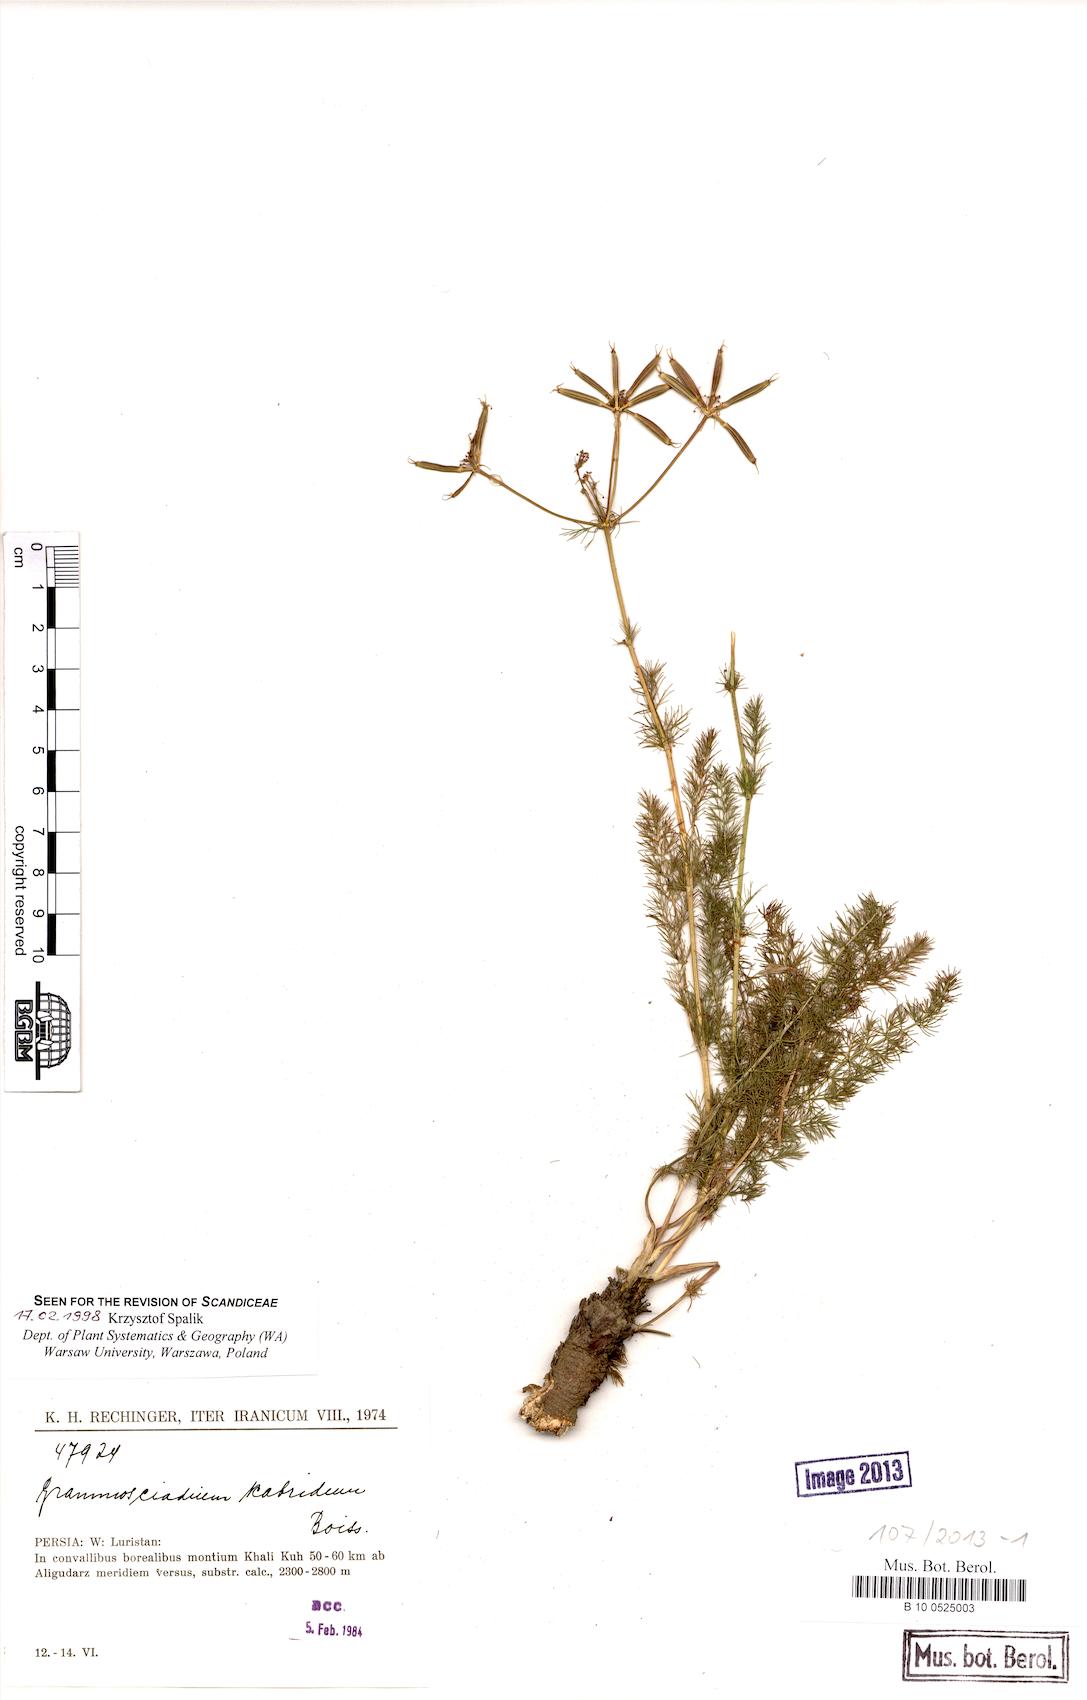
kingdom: Plantae
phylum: Tracheophyta
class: Magnoliopsida
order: Apiales
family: Apiaceae
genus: Grammosciadium
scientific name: Grammosciadium scabridum
